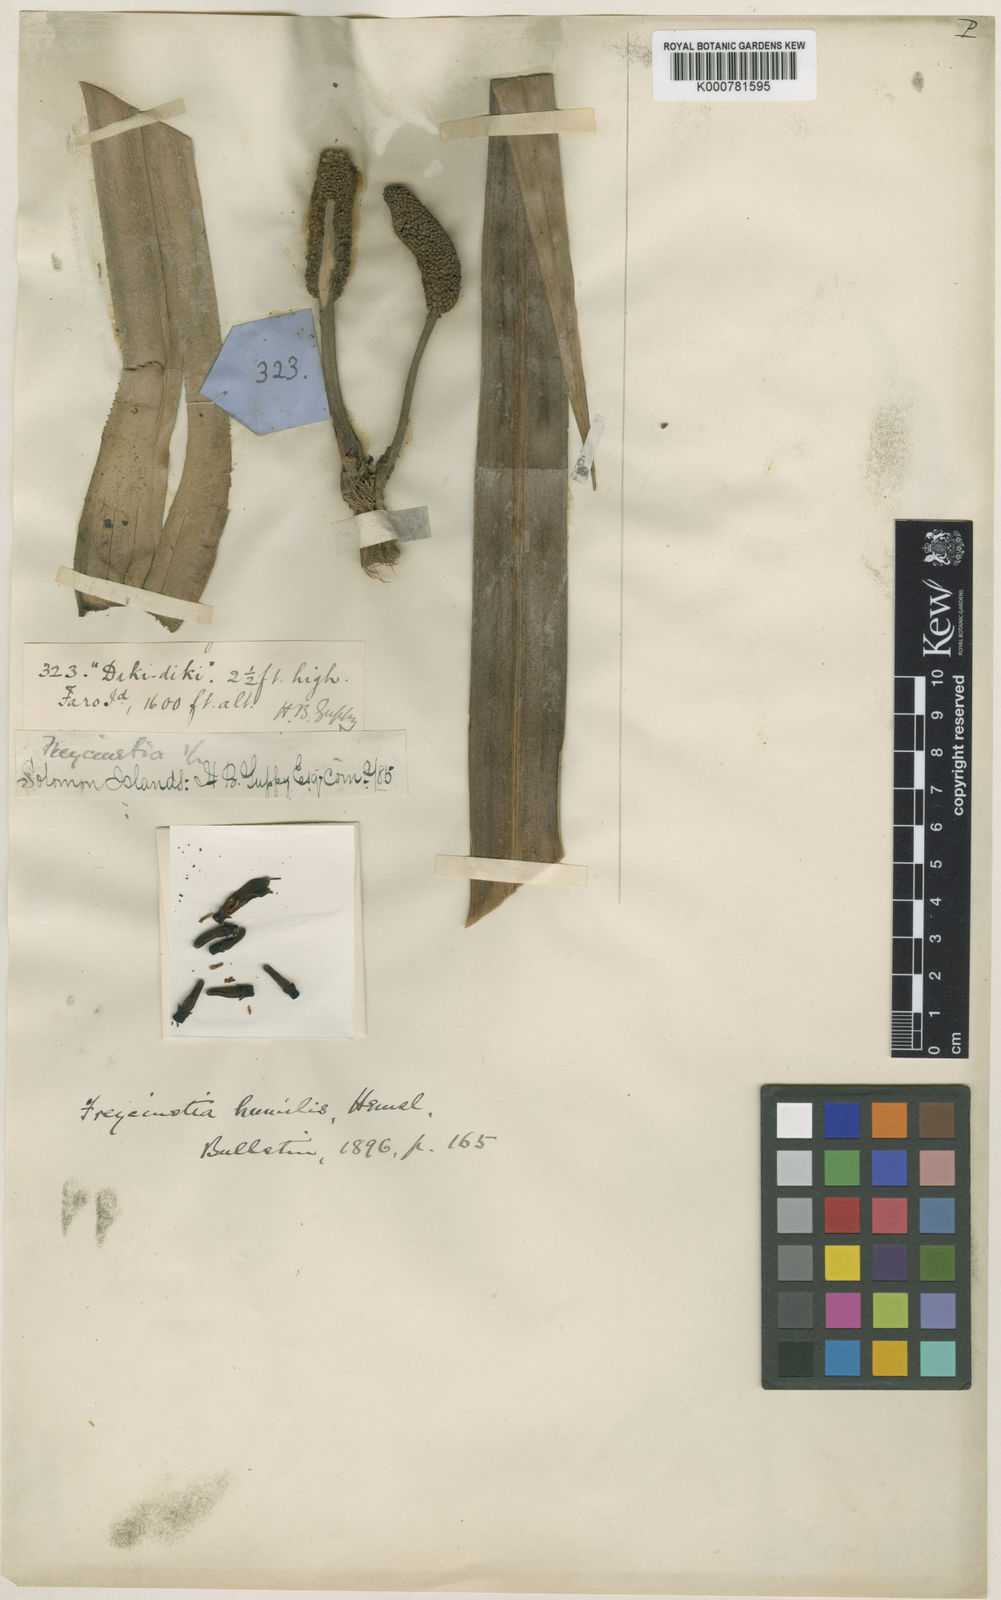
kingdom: Plantae
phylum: Tracheophyta
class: Liliopsida
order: Pandanales
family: Pandanaceae
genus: Freycinetia
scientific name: Freycinetia humilis
